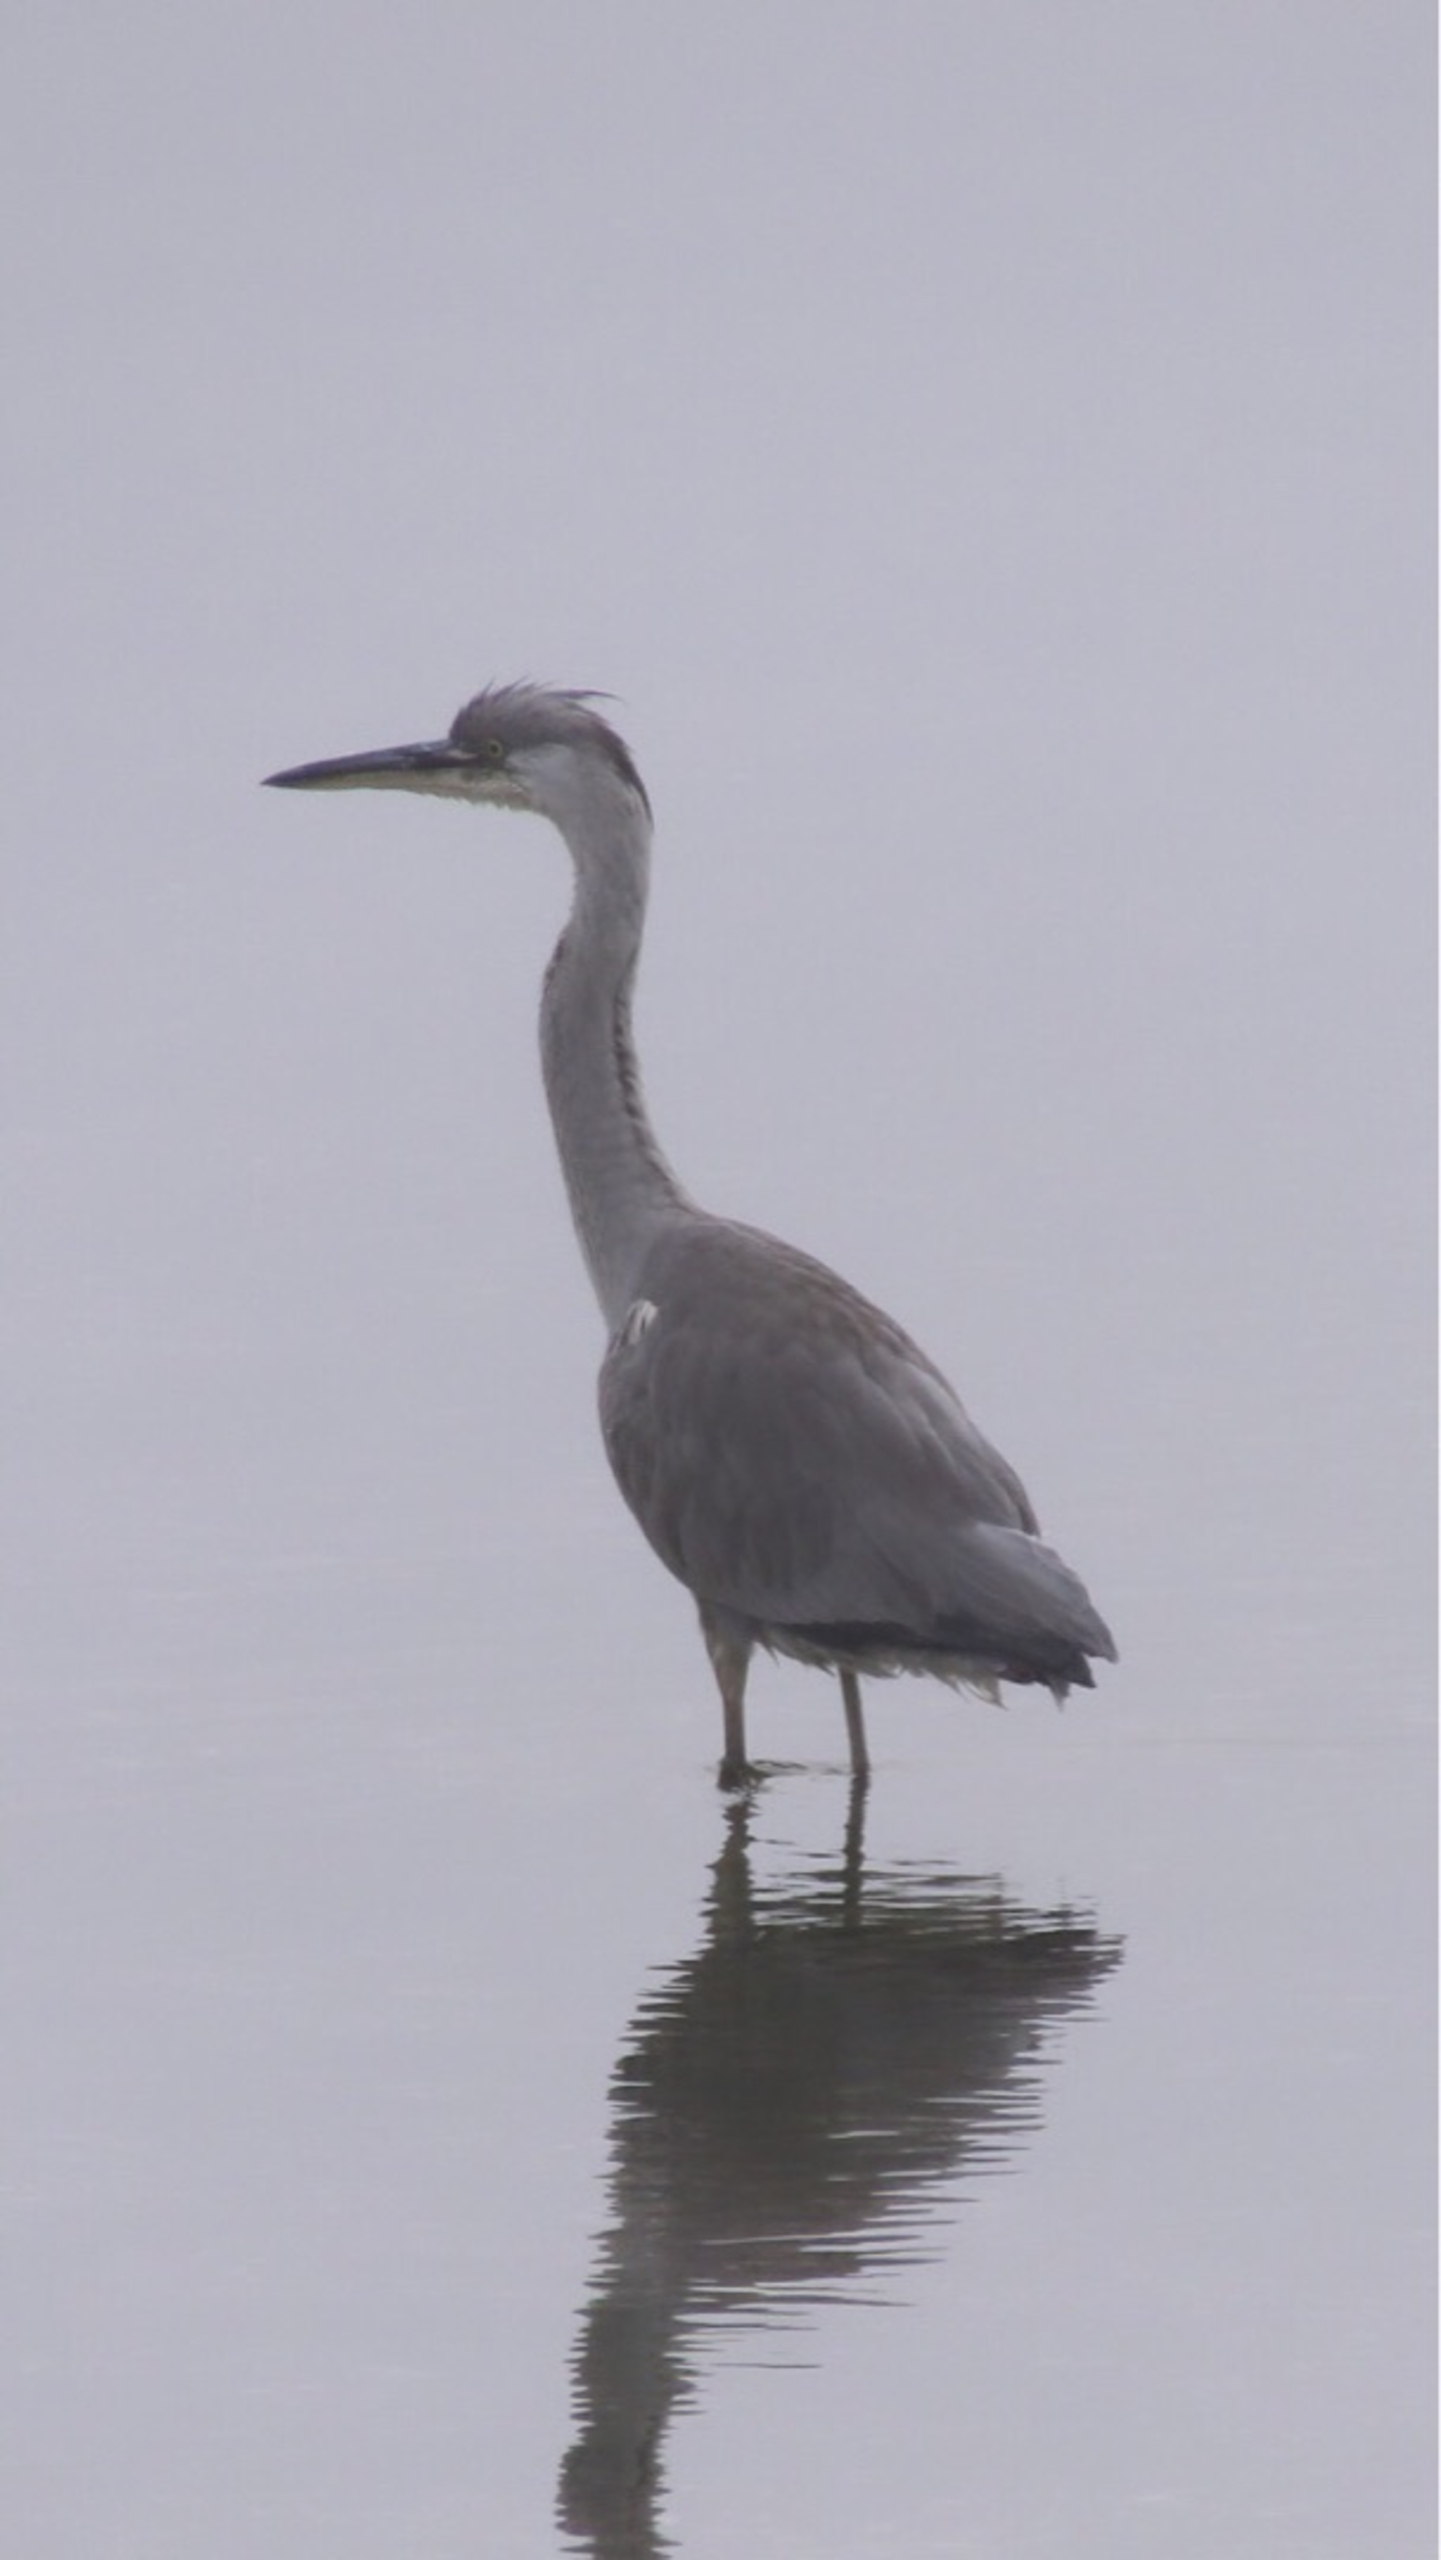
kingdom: Animalia
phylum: Chordata
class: Aves
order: Pelecaniformes
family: Ardeidae
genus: Ardea
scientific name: Ardea cinerea
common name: Fiskehejre
